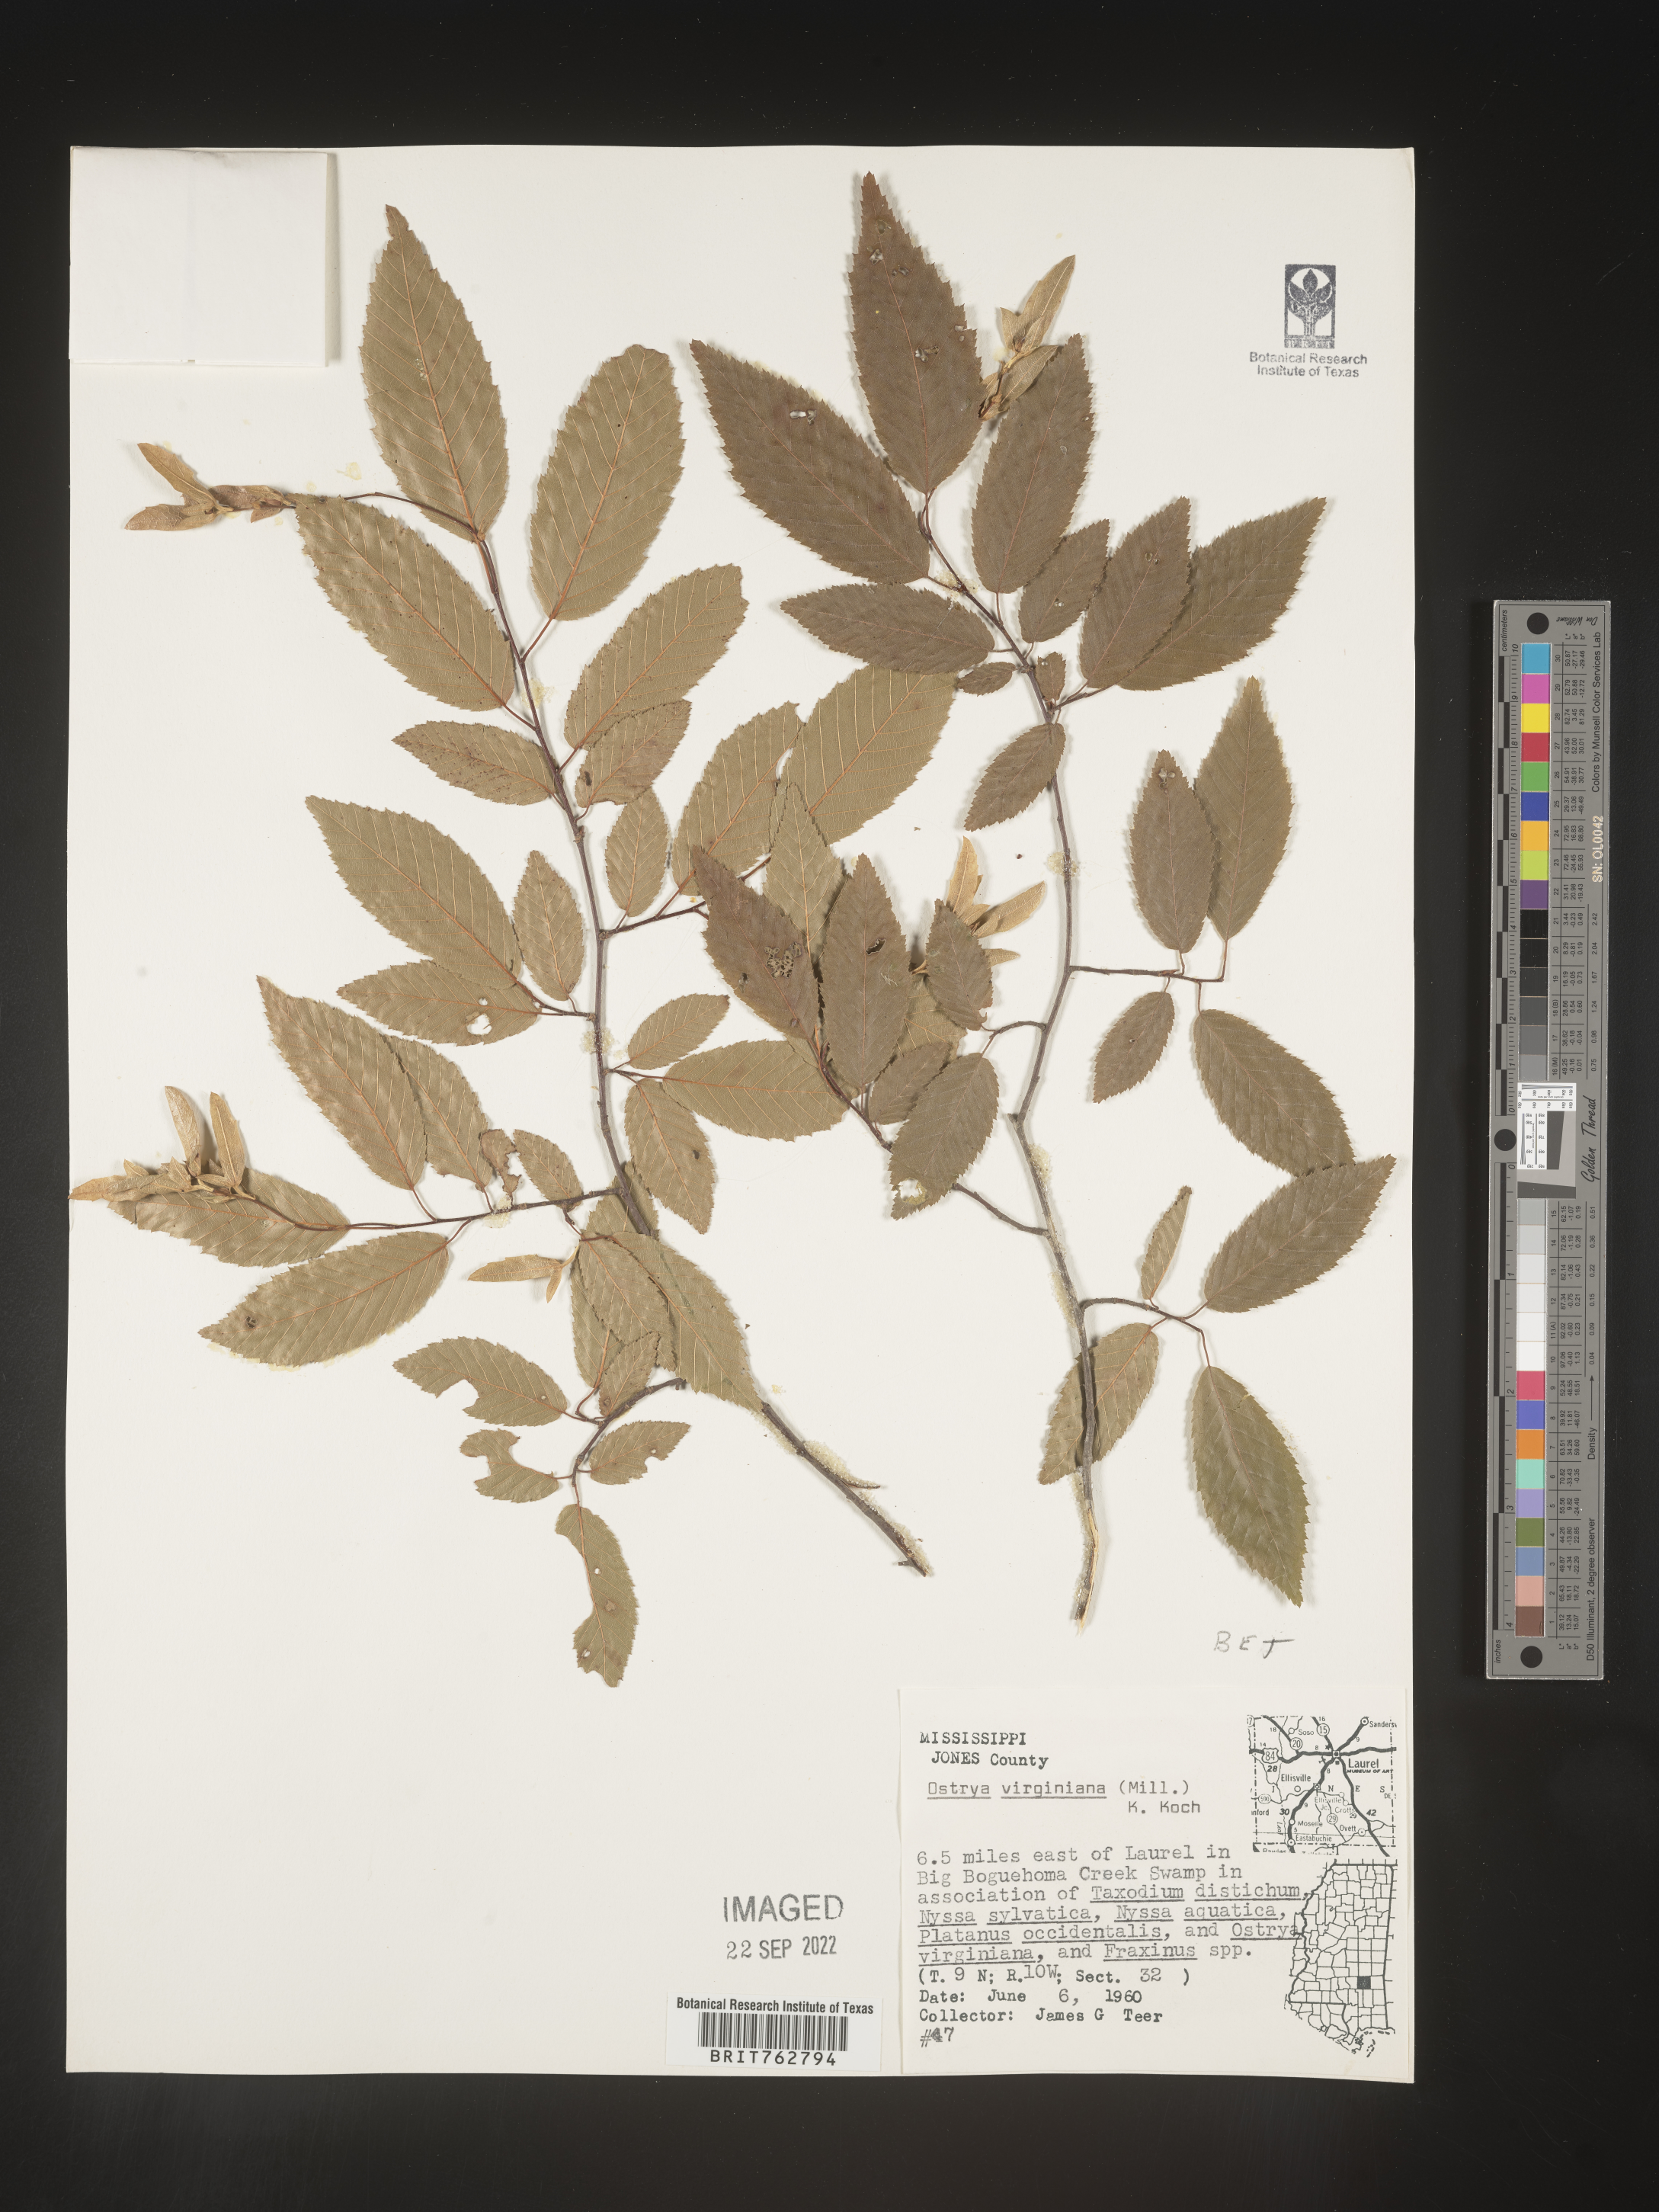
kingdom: Plantae
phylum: Tracheophyta
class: Magnoliopsida
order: Fagales
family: Betulaceae
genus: Ostrya
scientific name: Ostrya virginiana
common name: Ironwood
